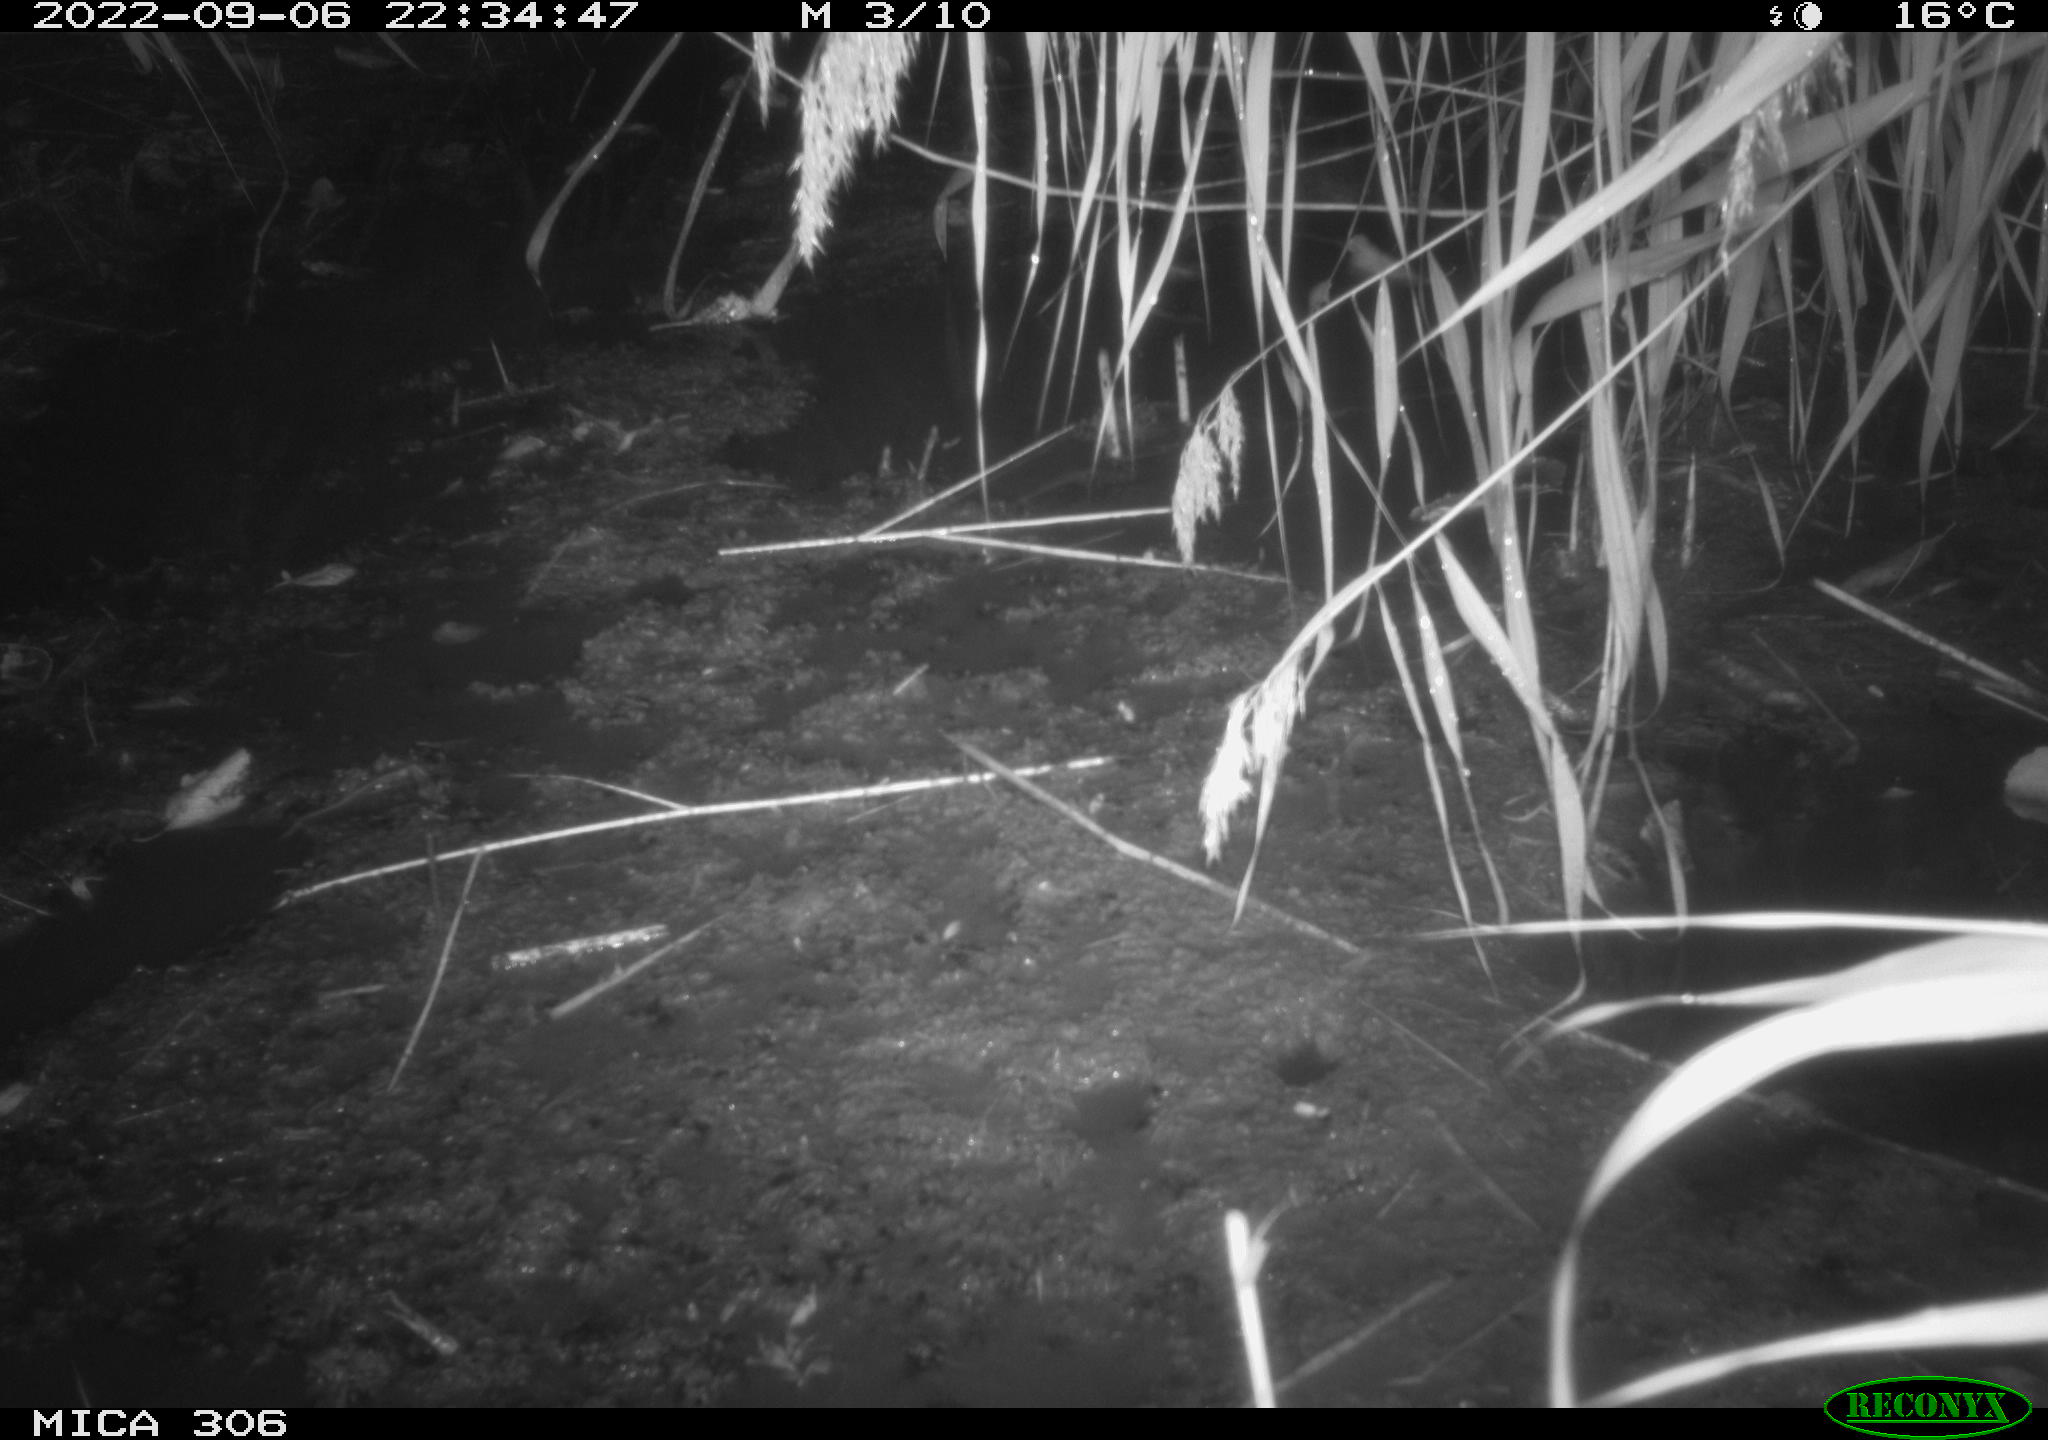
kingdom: Animalia
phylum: Chordata
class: Mammalia
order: Rodentia
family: Muridae
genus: Rattus
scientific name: Rattus norvegicus
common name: Brown rat
